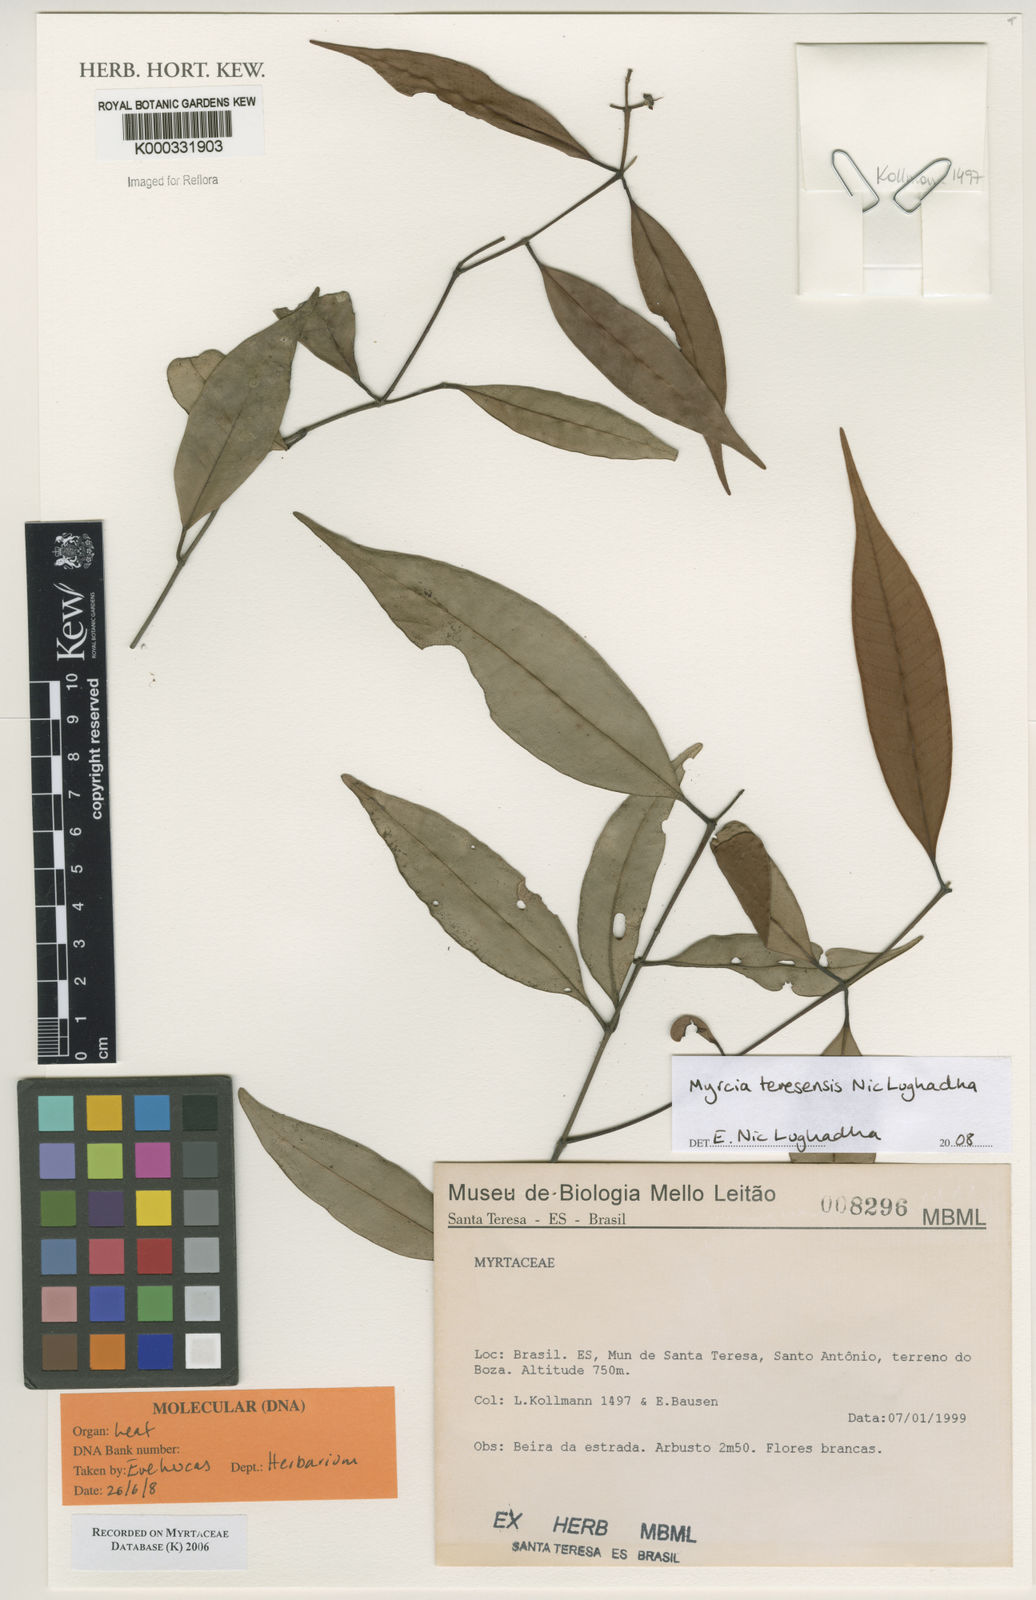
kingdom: Plantae
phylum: Tracheophyta
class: Magnoliopsida
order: Myrtales
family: Myrtaceae
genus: Myrcia
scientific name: Myrcia velutiflora
